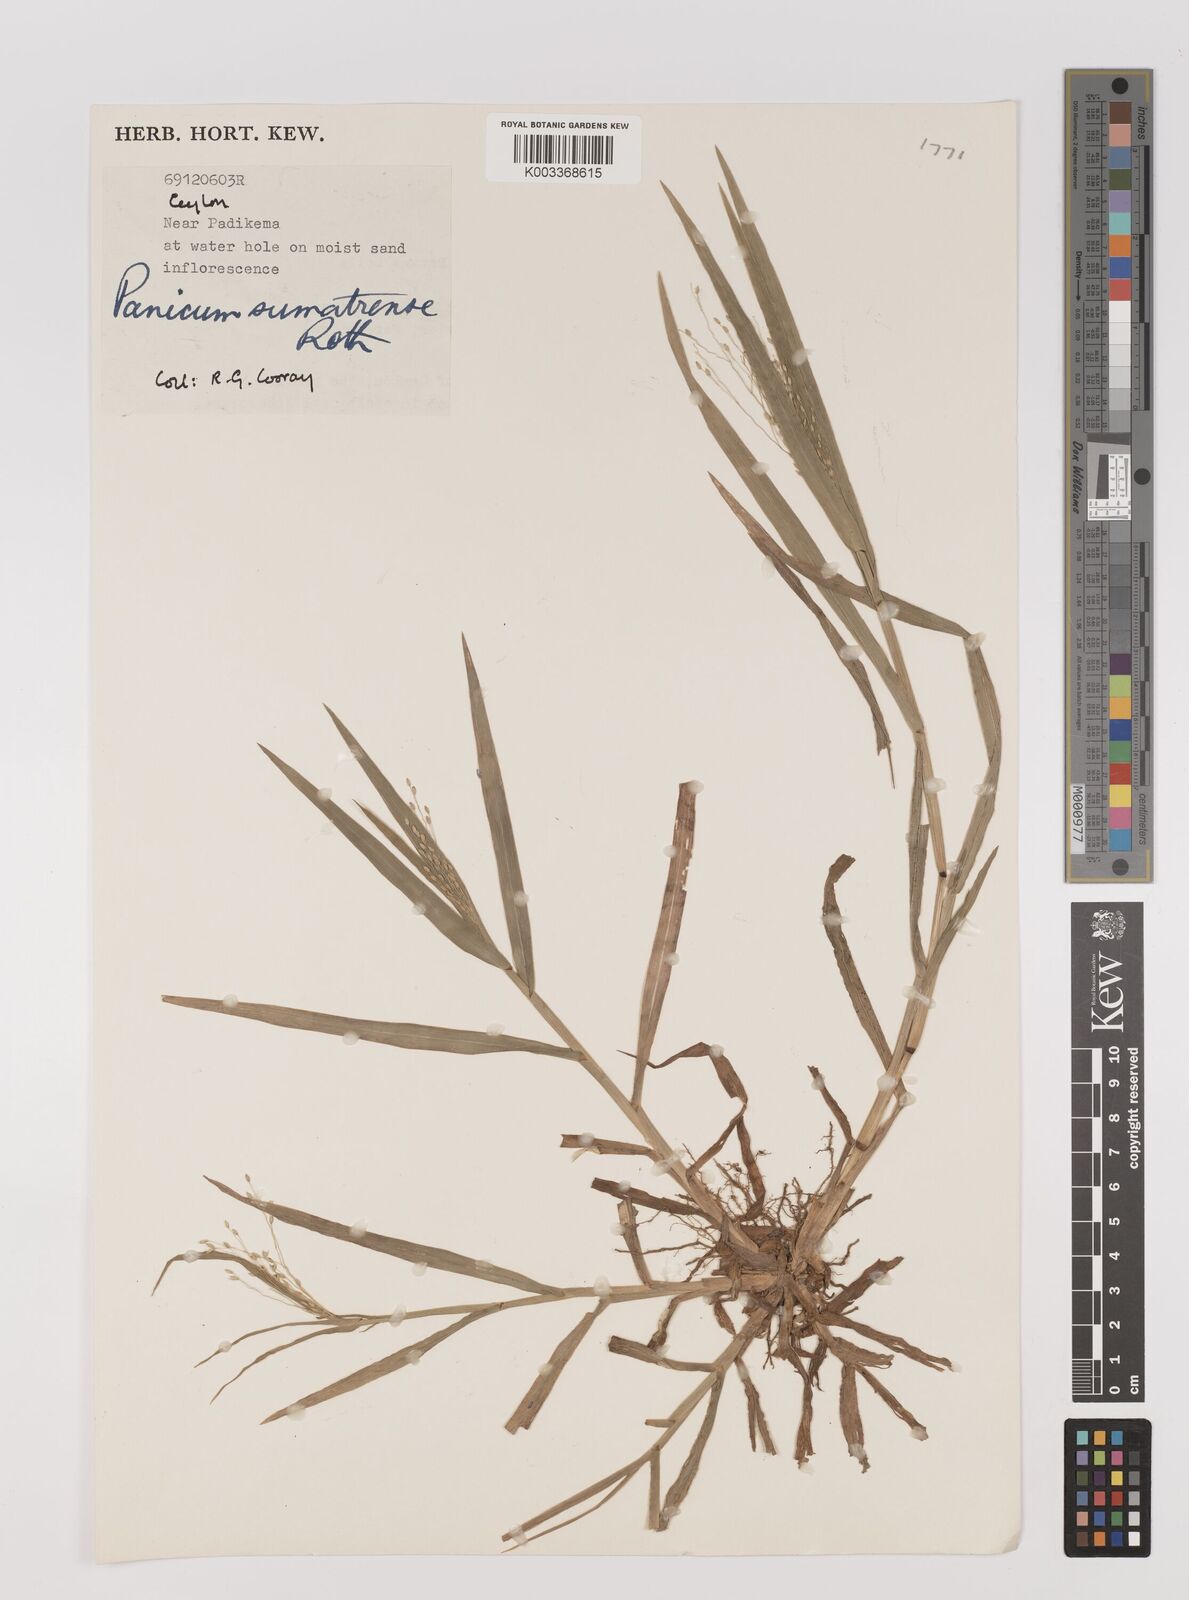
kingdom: Plantae
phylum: Tracheophyta
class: Liliopsida
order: Poales
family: Poaceae
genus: Panicum
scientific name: Panicum sumatrense
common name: Little millet
